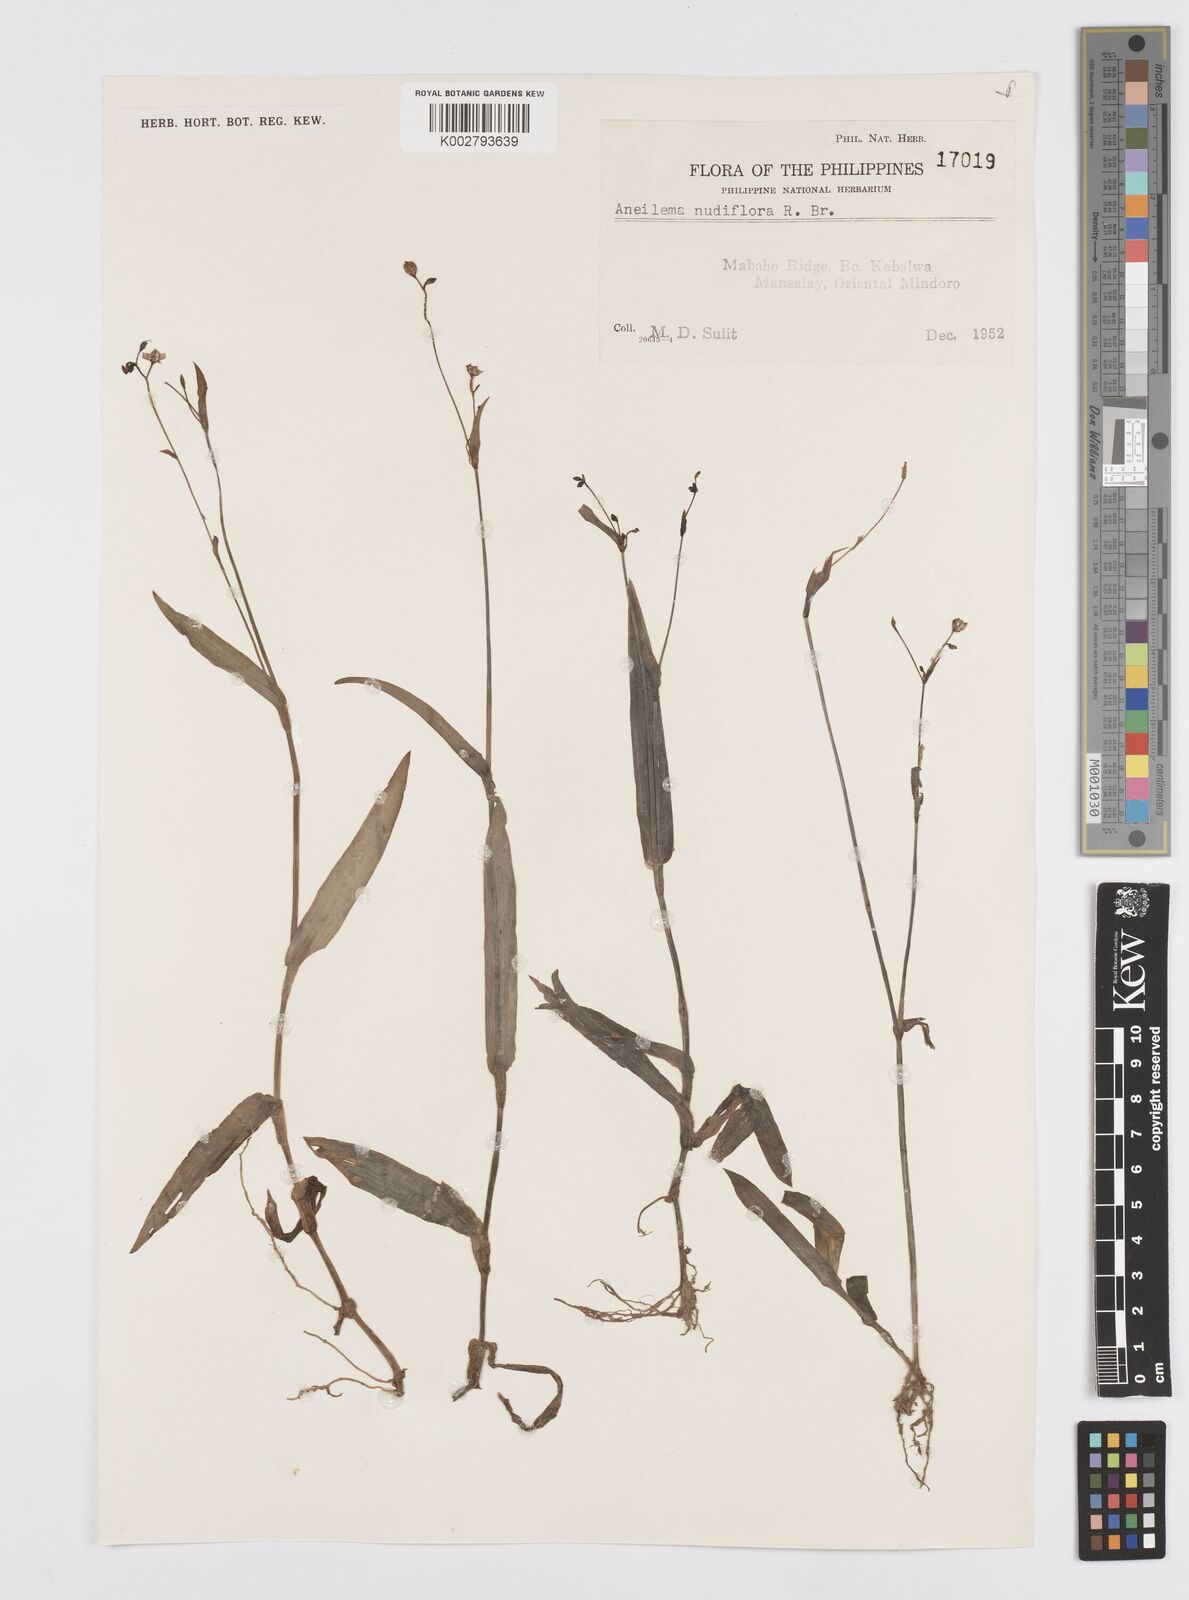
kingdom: Plantae
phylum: Tracheophyta
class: Liliopsida
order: Commelinales
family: Commelinaceae
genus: Murdannia
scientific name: Murdannia nudiflora
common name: Nakedstem dewflower
